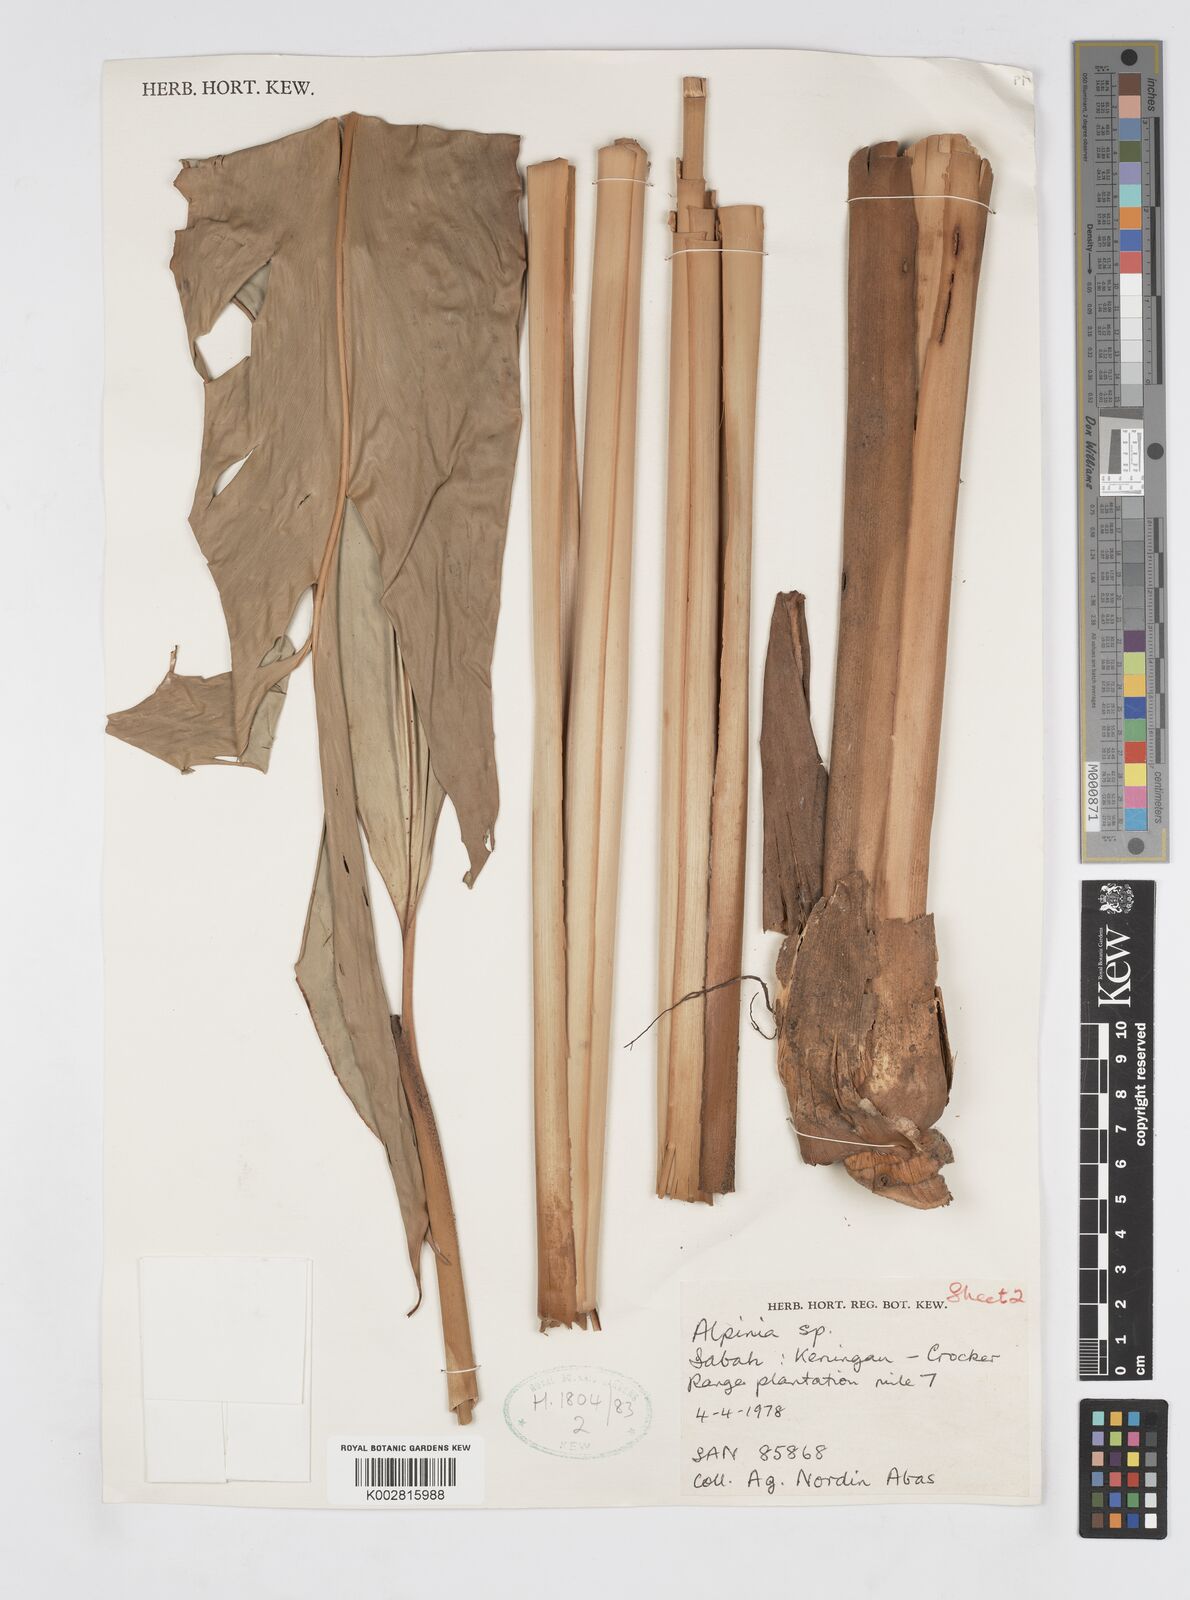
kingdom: Plantae
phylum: Tracheophyta
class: Liliopsida
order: Zingiberales
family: Zingiberaceae
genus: Alpinia
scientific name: Alpinia nieuwenhuizii
